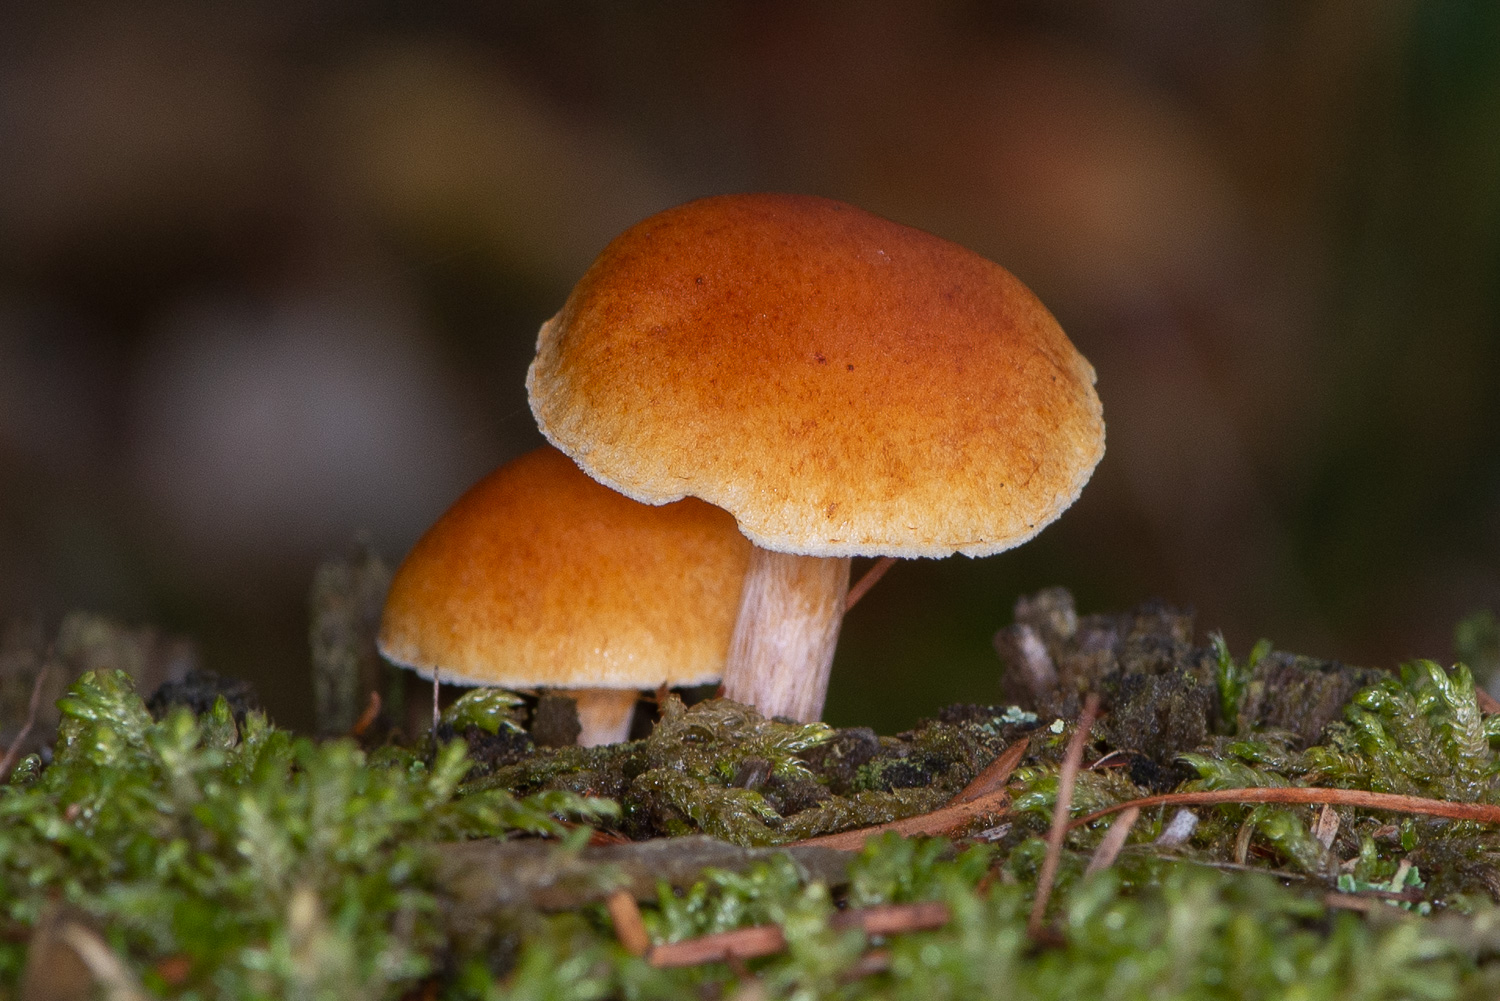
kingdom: Fungi
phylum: Basidiomycota
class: Agaricomycetes
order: Agaricales
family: Hymenogastraceae
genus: Gymnopilus
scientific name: Gymnopilus penetrans
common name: plettet flammehat
